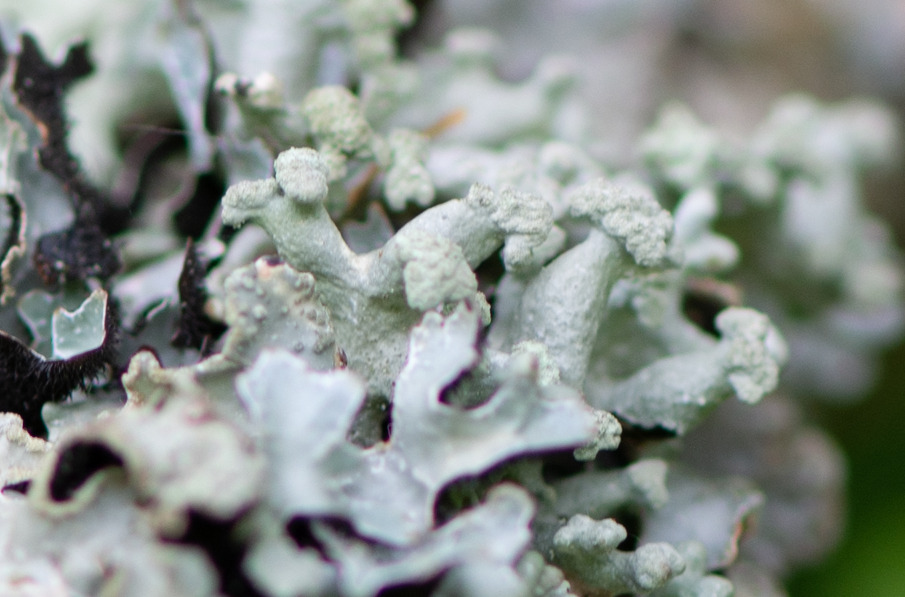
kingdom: Fungi
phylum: Ascomycota
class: Lecanoromycetes
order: Lecanorales
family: Parmeliaceae
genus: Hypogymnia
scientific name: Hypogymnia tubulosa
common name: Finger-kvistlav
